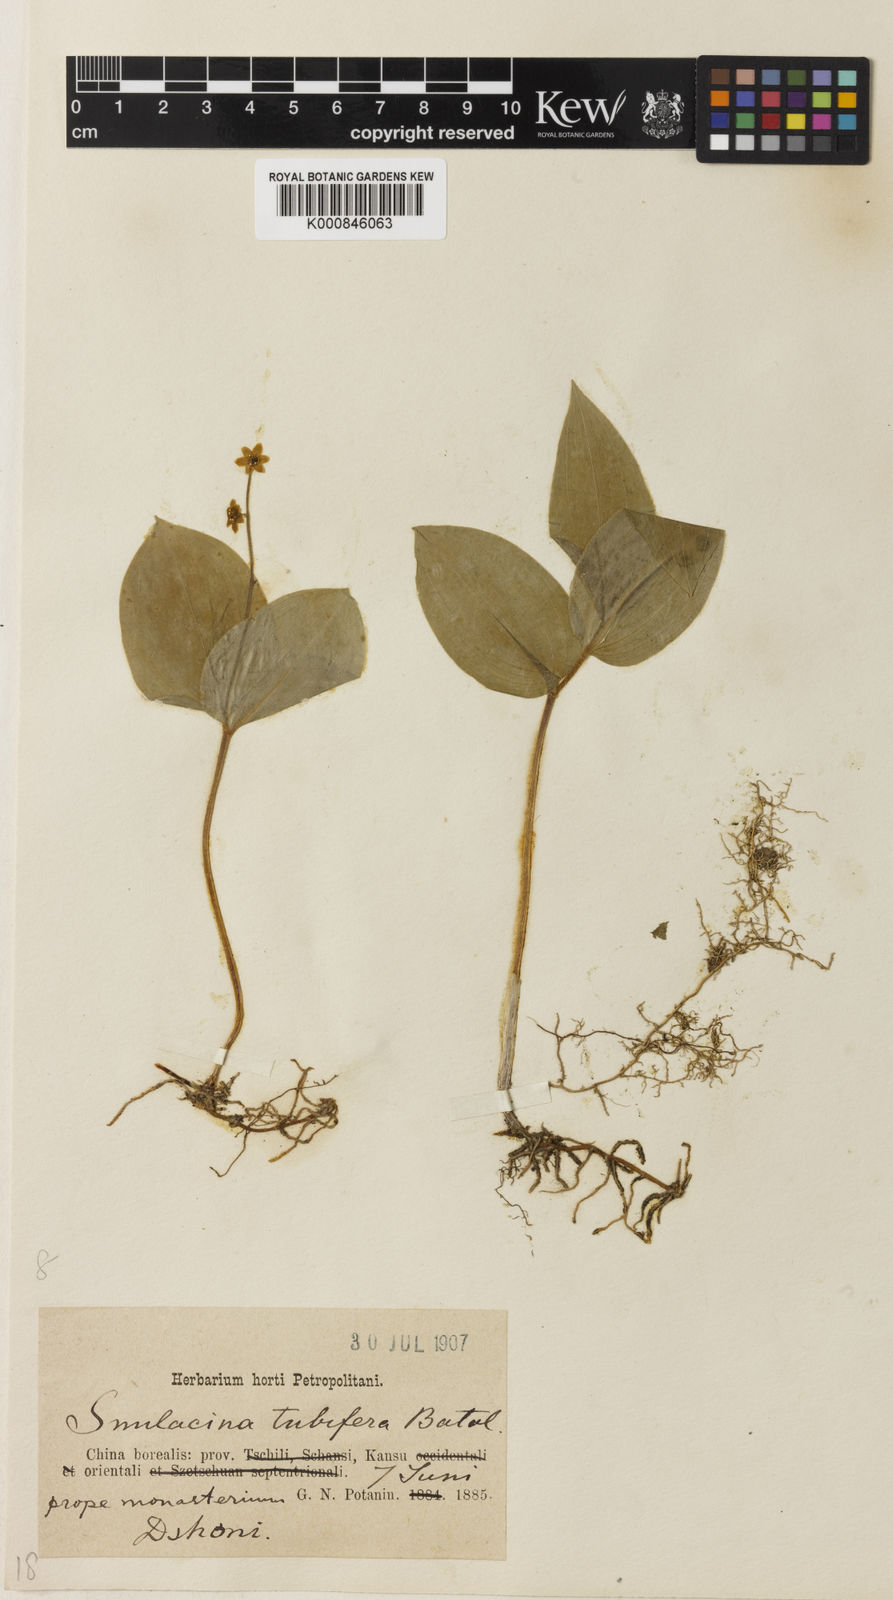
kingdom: Plantae
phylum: Tracheophyta
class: Liliopsida
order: Asparagales
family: Asparagaceae
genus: Maianthemum
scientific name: Maianthemum tubiferum
